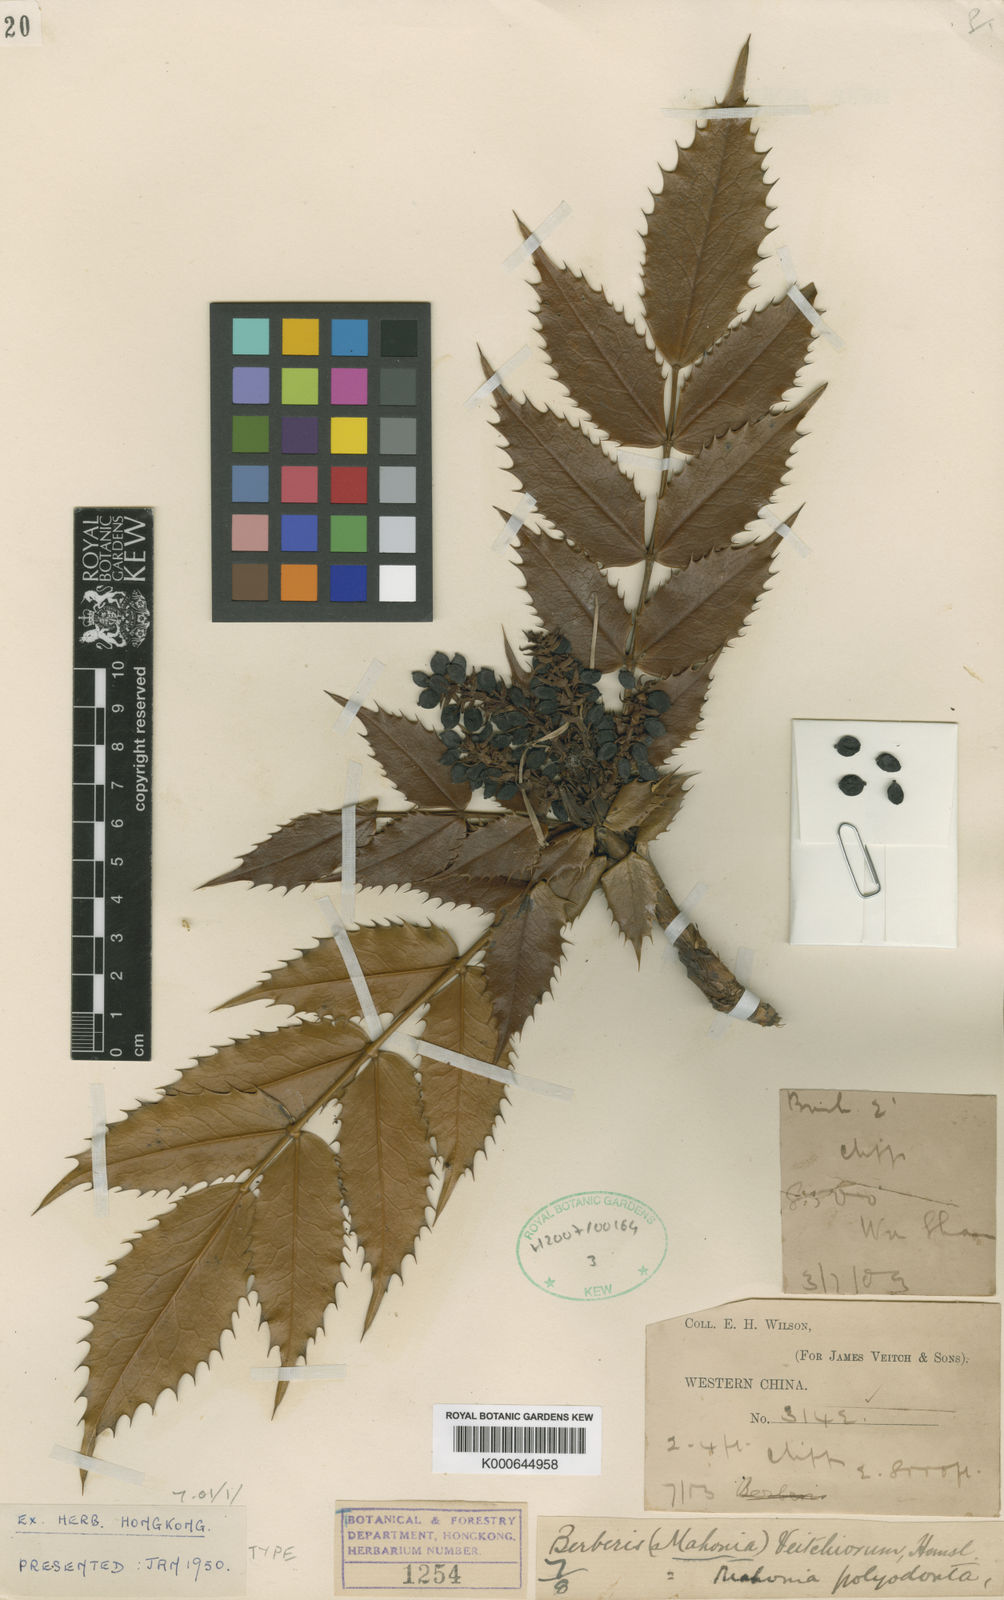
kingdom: Plantae
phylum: Tracheophyta
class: Magnoliopsida
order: Ranunculales
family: Berberidaceae
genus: Mahonia
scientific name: Mahonia polyodonta
